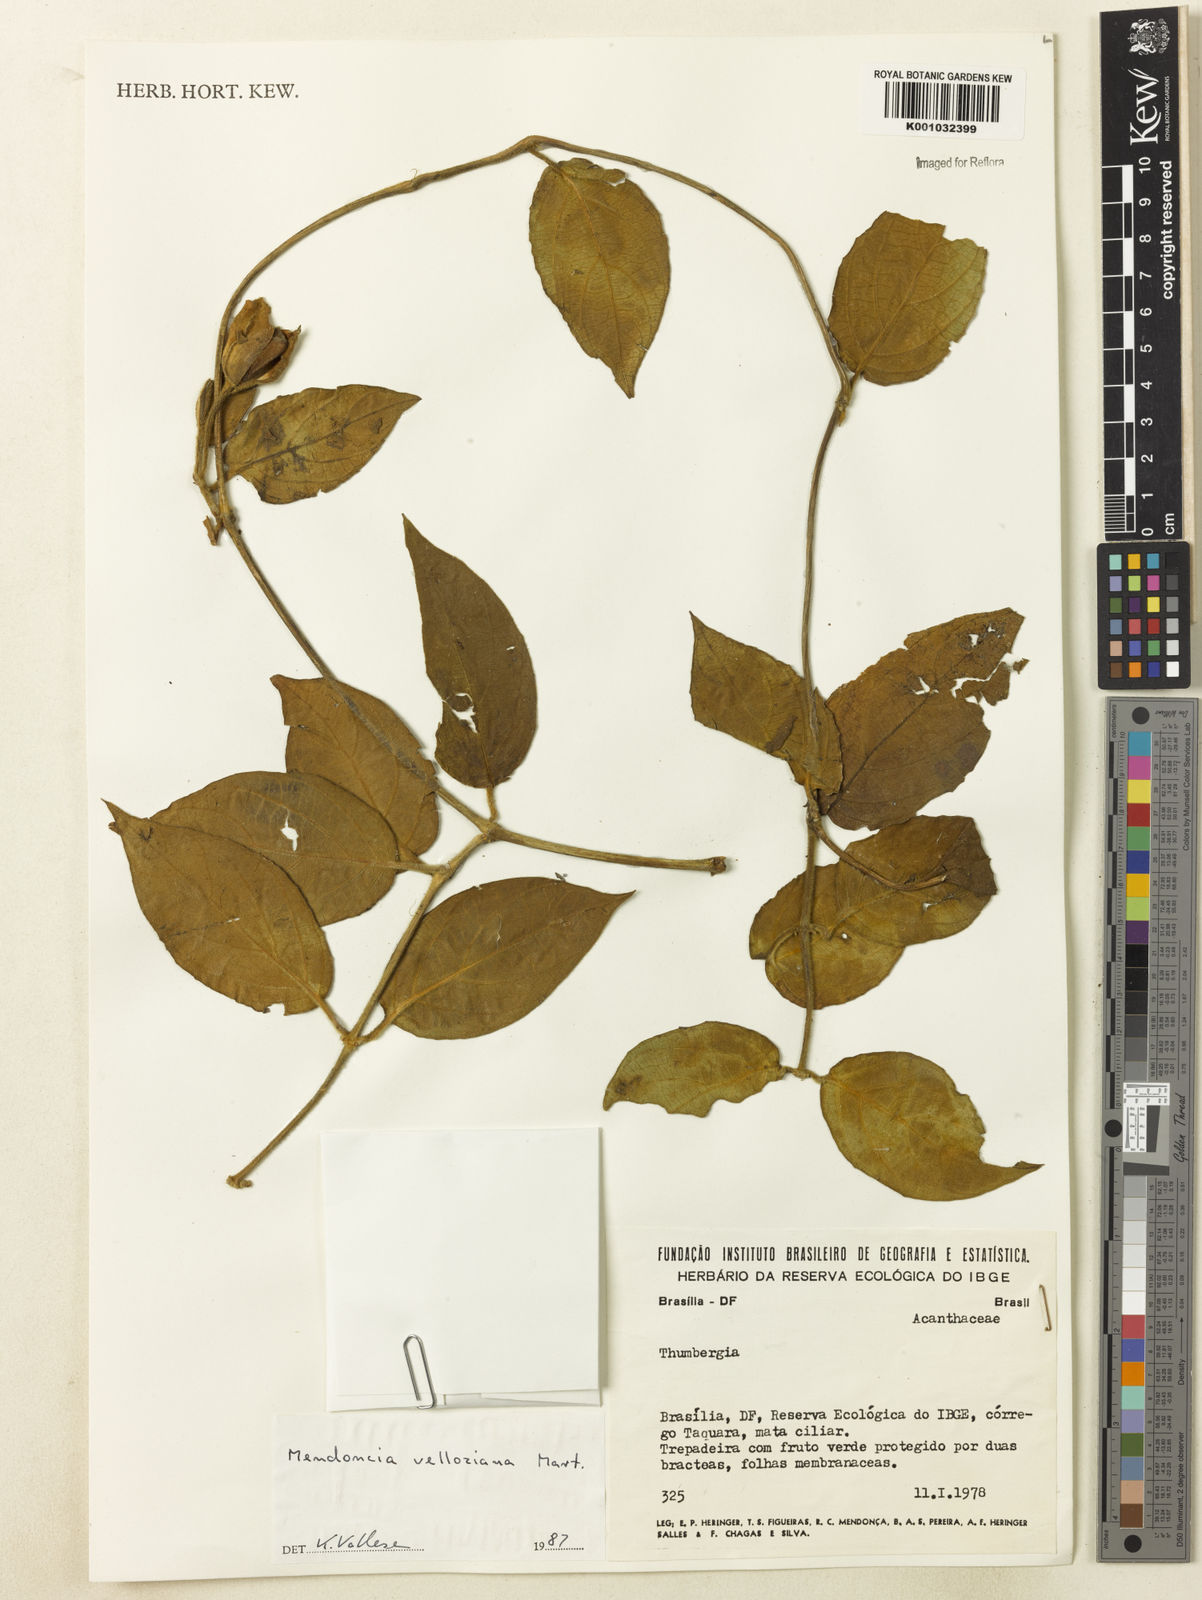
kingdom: Plantae
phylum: Tracheophyta
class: Magnoliopsida
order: Lamiales
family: Acanthaceae
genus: Mendoncia
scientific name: Mendoncia velloziana
